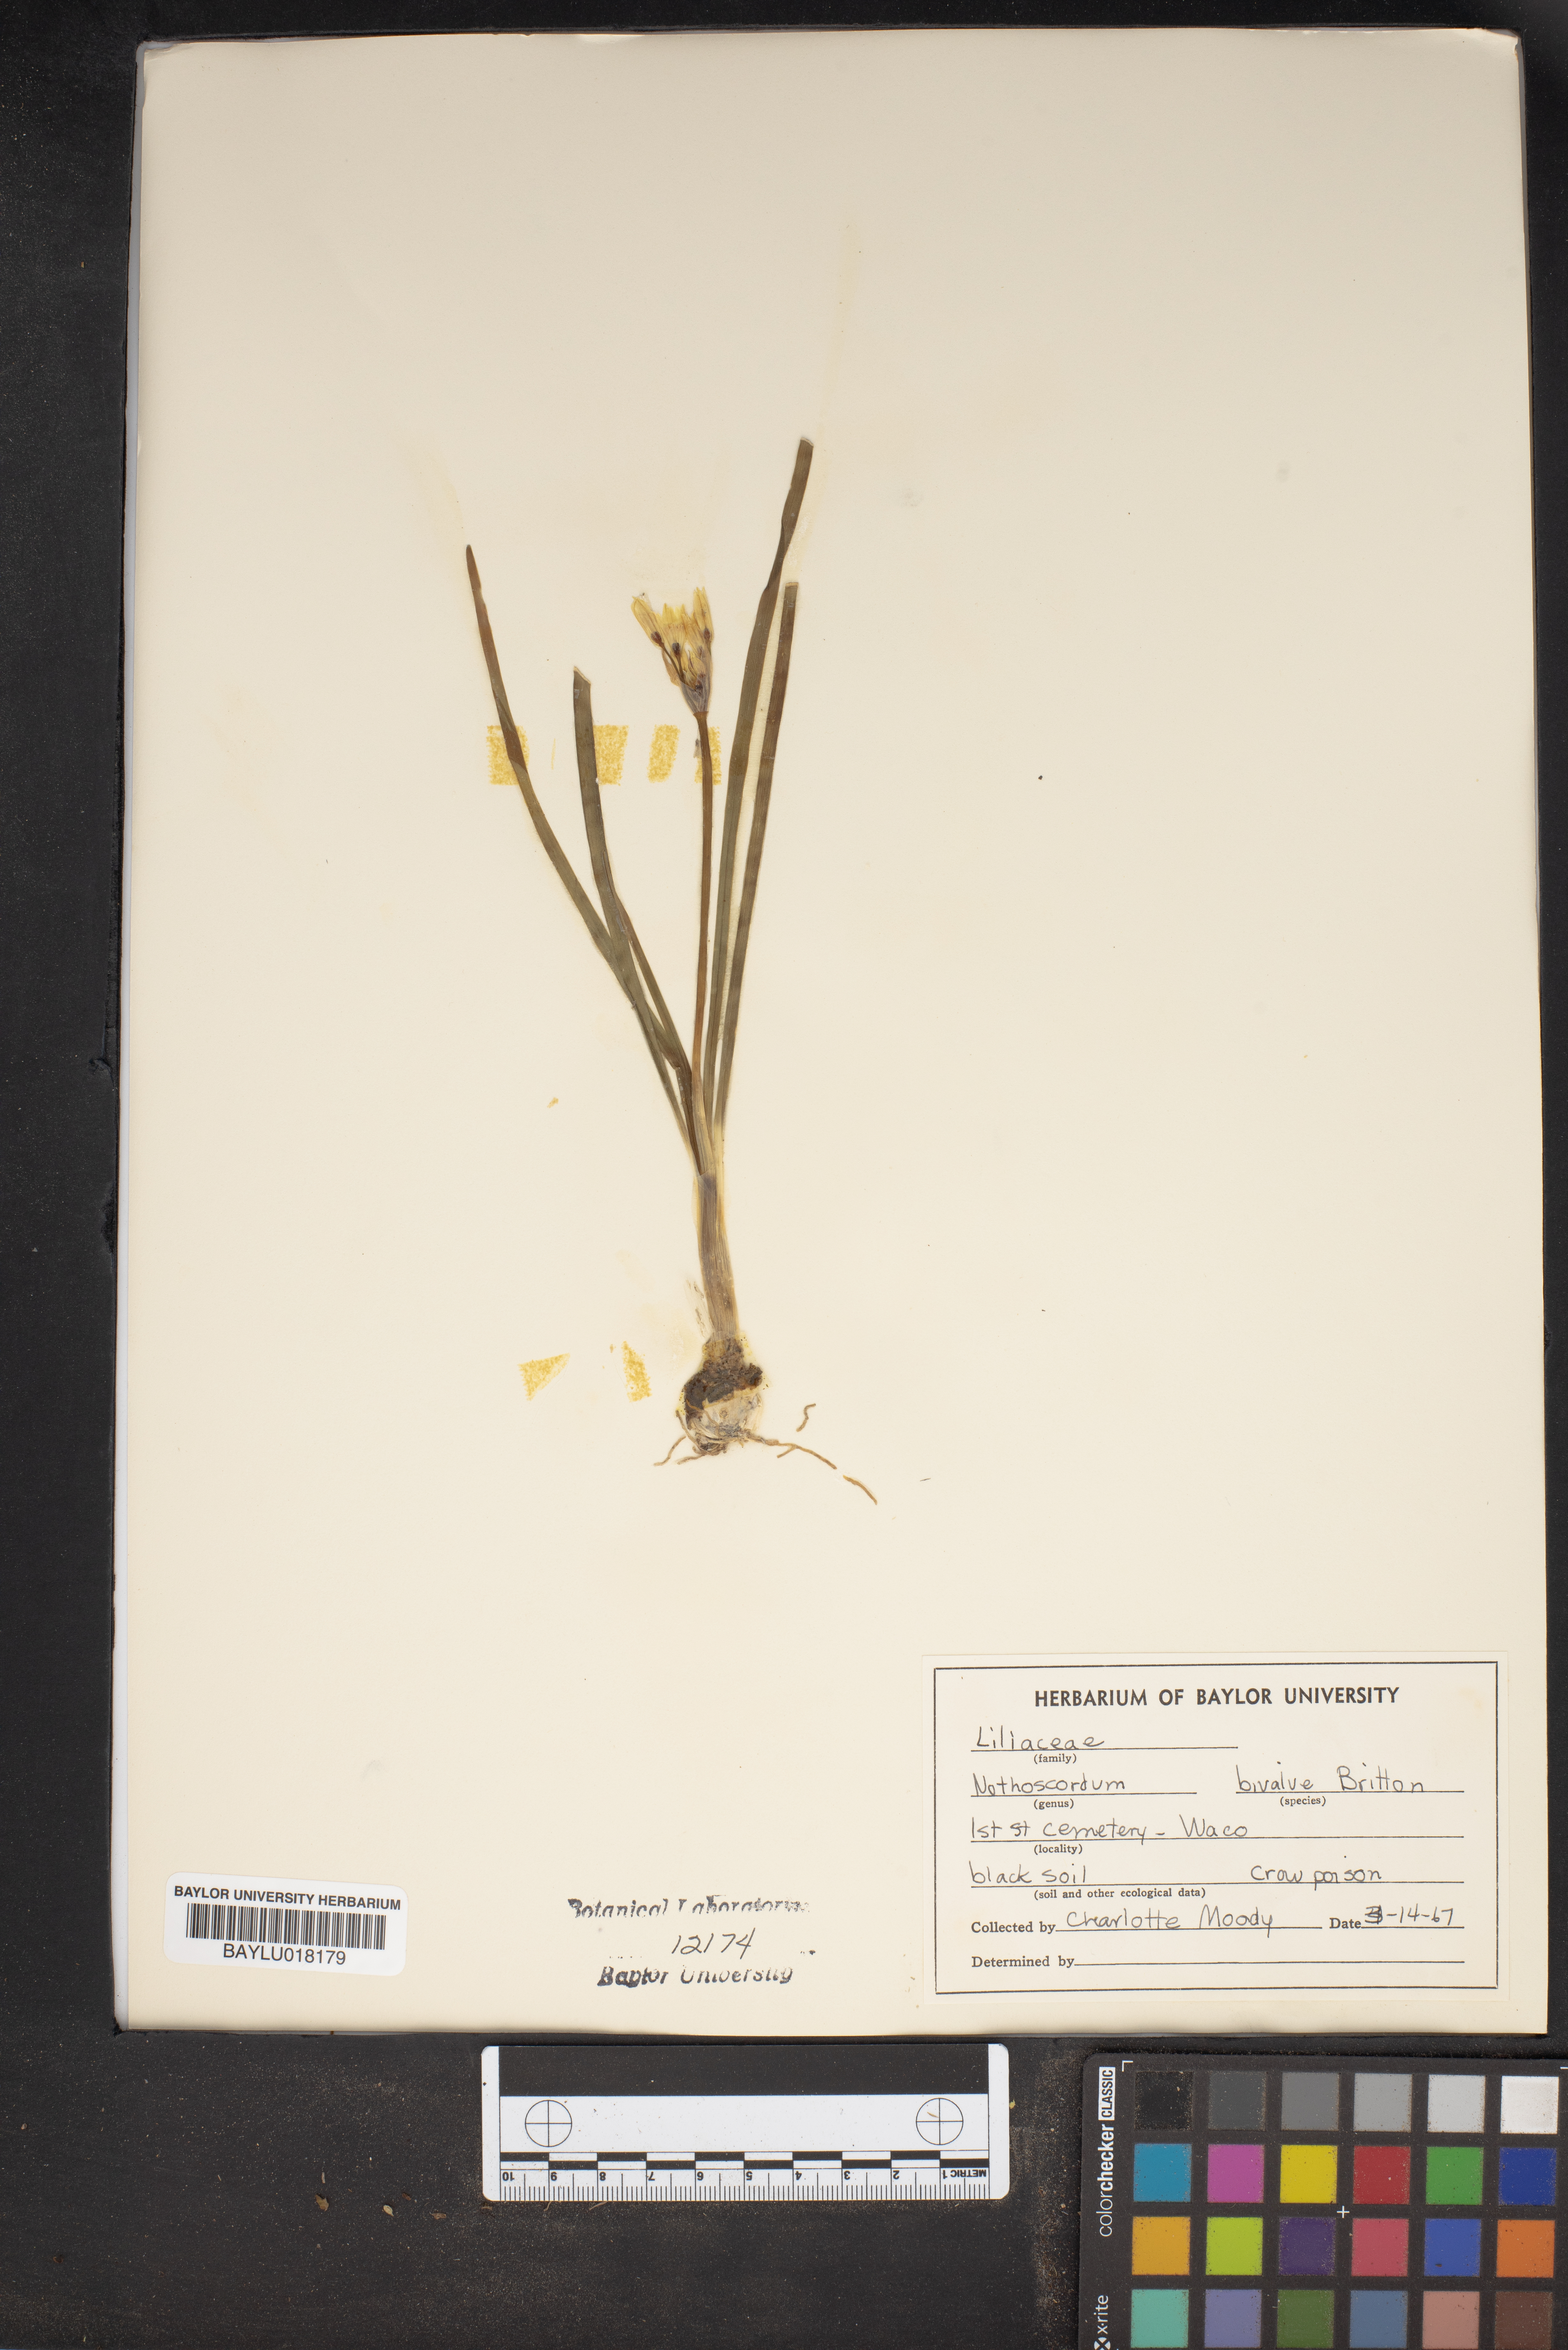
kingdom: Plantae
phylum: Tracheophyta
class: Liliopsida
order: Asparagales
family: Amaryllidaceae
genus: Nothoscordum
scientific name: Nothoscordum bivalve
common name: Crow-poison
